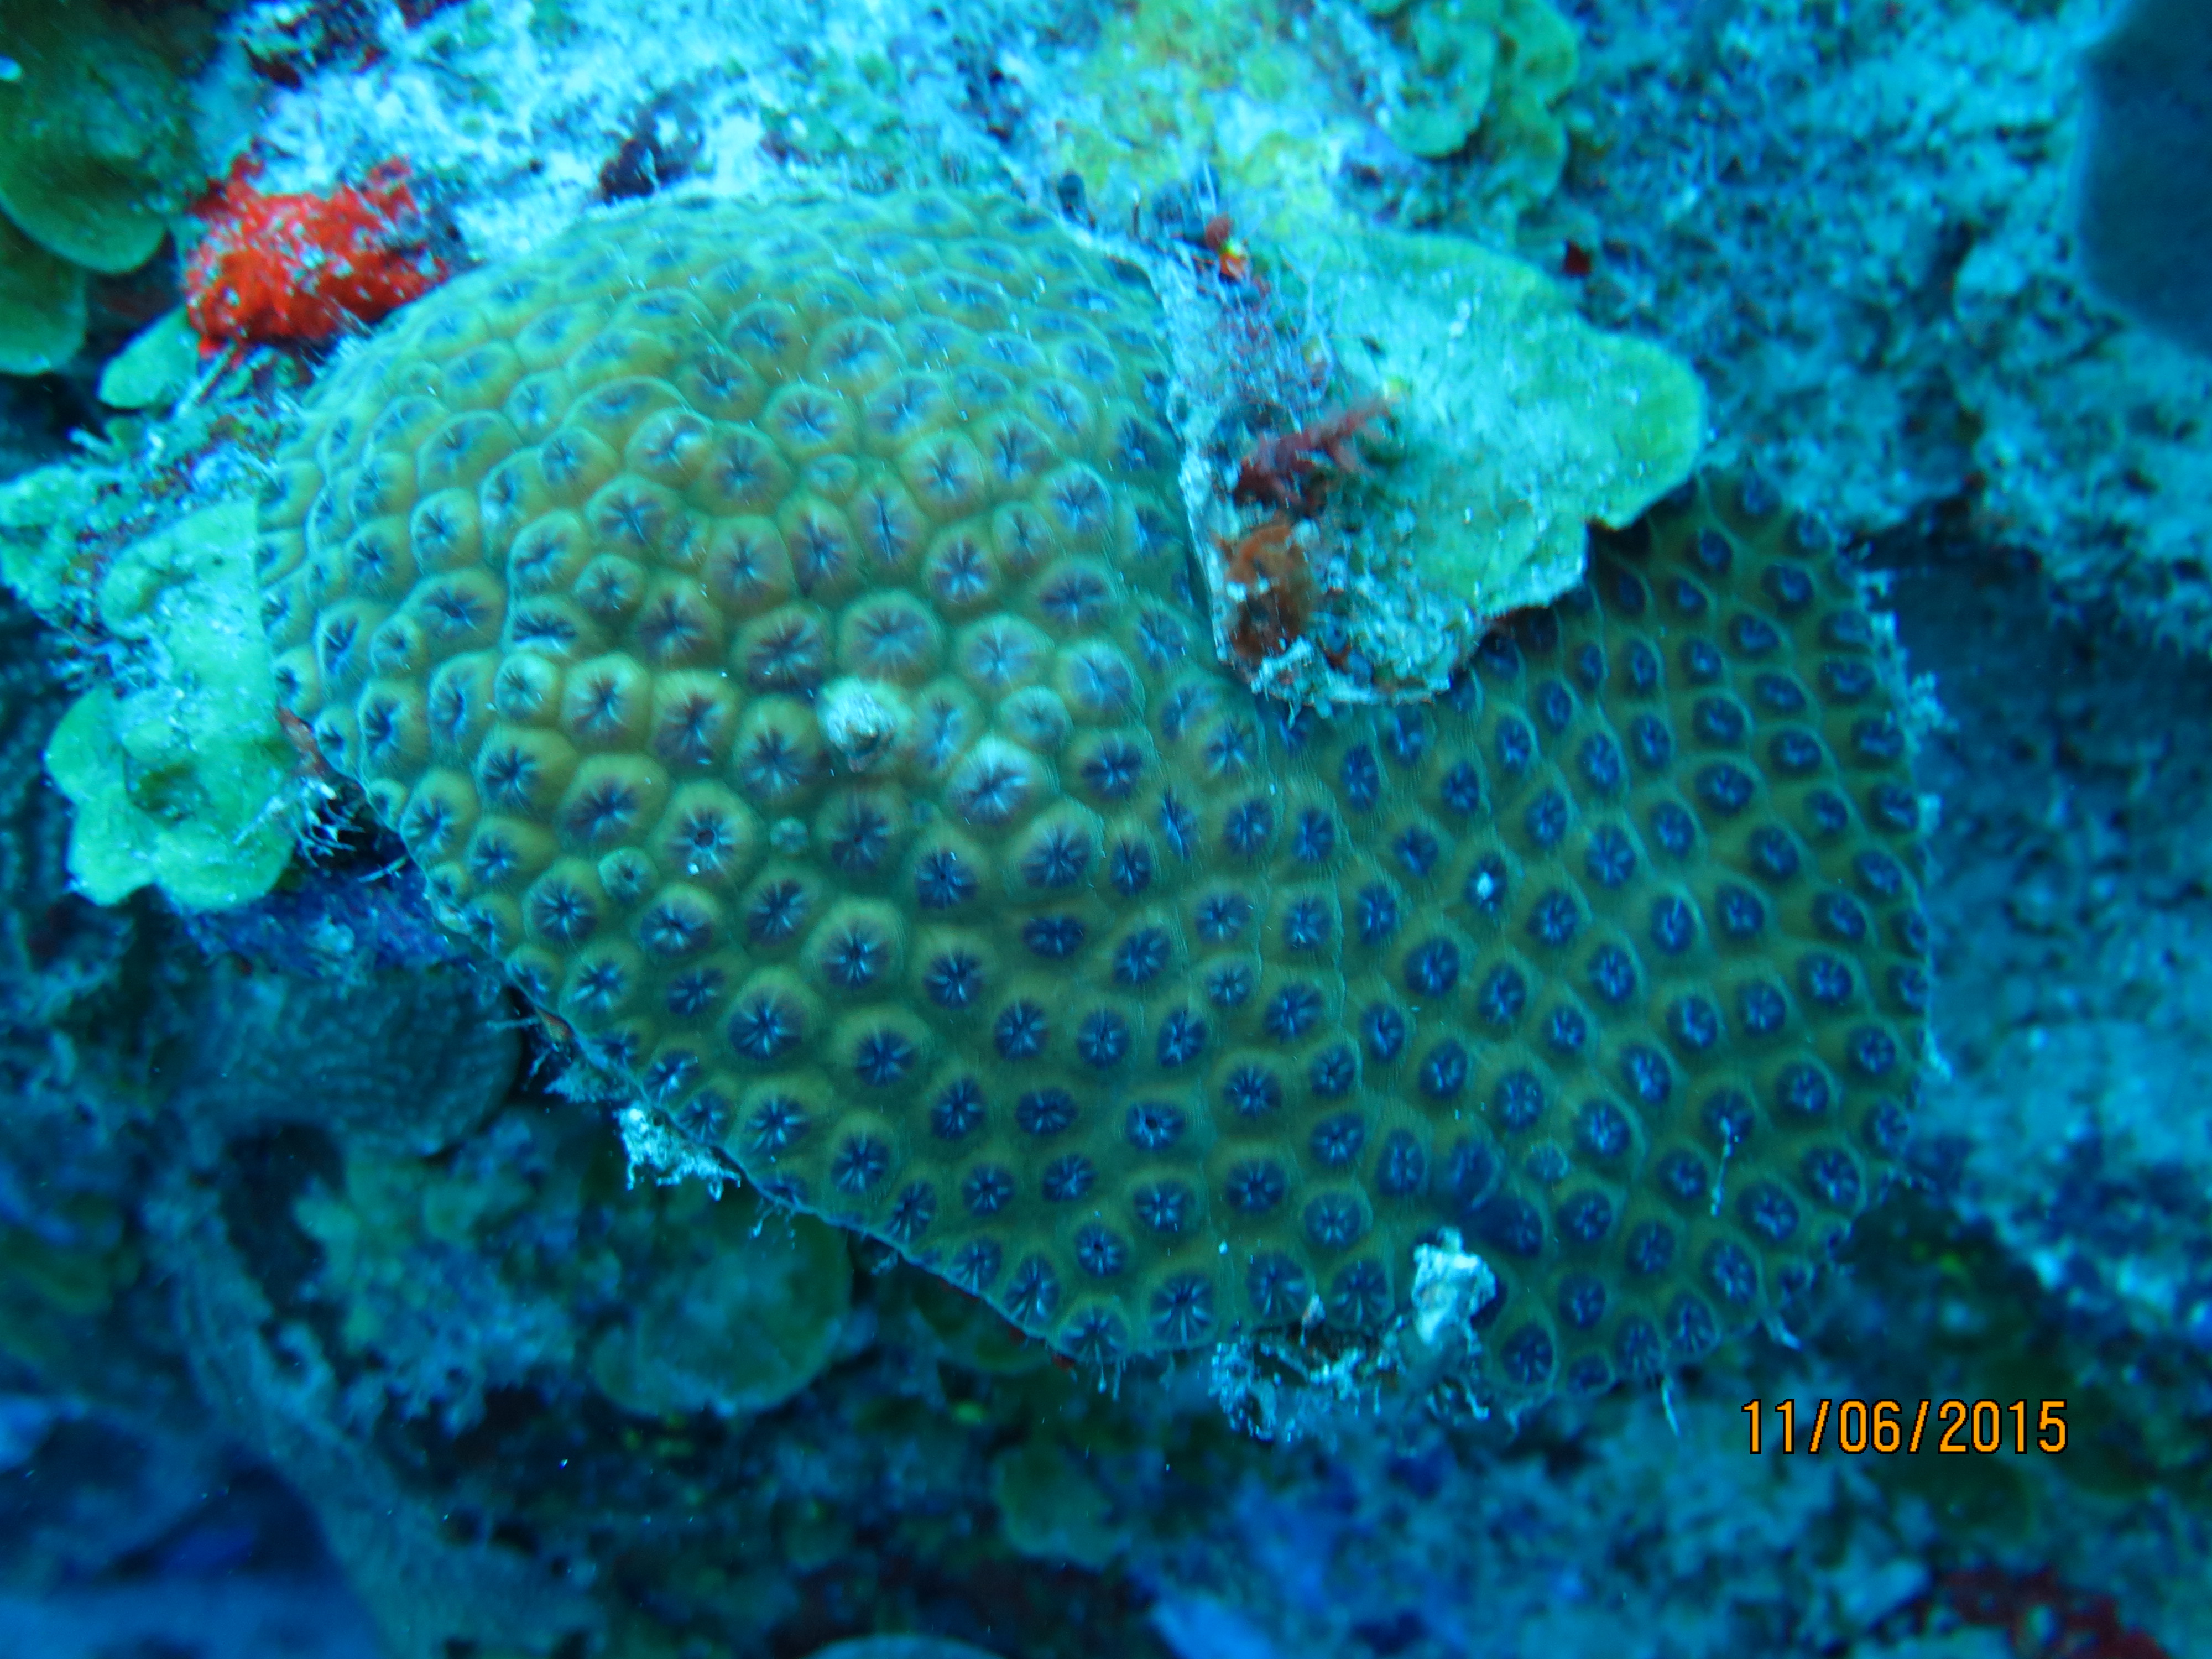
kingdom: Animalia
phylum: Cnidaria
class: Anthozoa
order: Scleractinia
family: Montastraeidae
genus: Montastraea
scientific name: Montastraea cavernosa
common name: Great star coral
